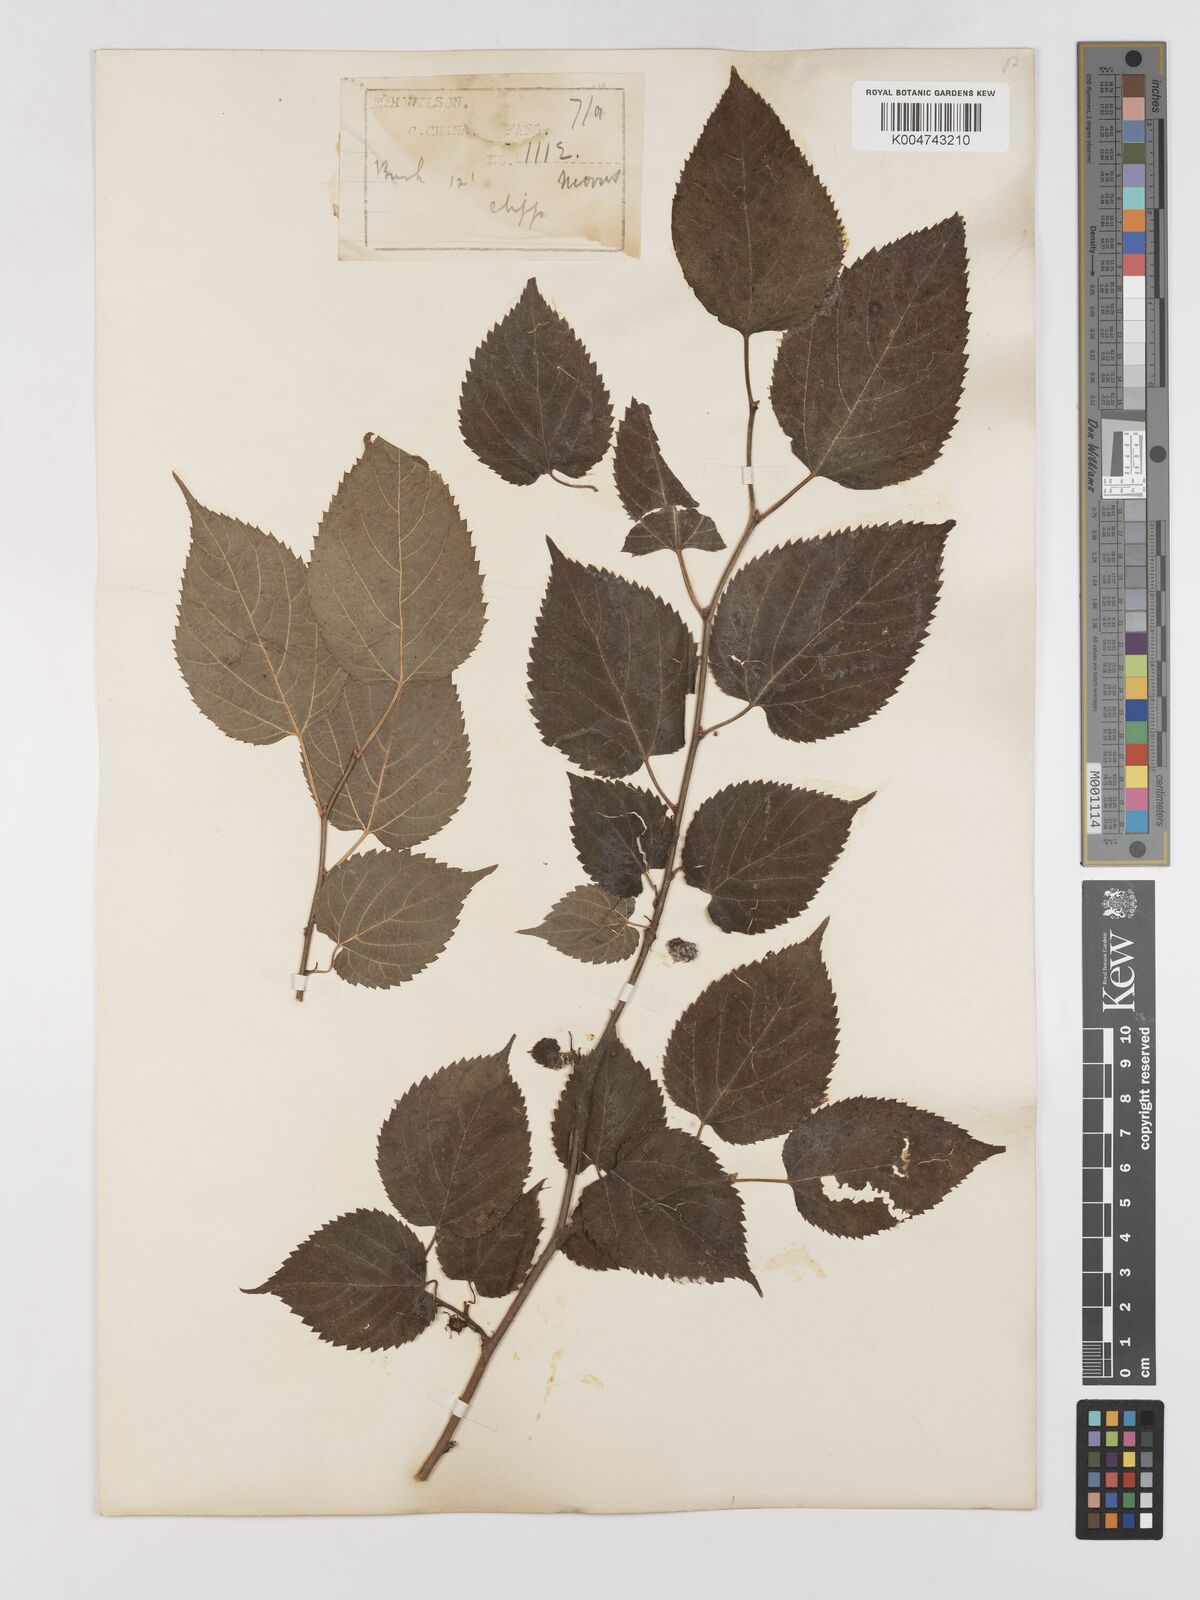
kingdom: Plantae
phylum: Tracheophyta
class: Magnoliopsida
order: Rosales
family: Moraceae
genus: Morus
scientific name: Morus indica
